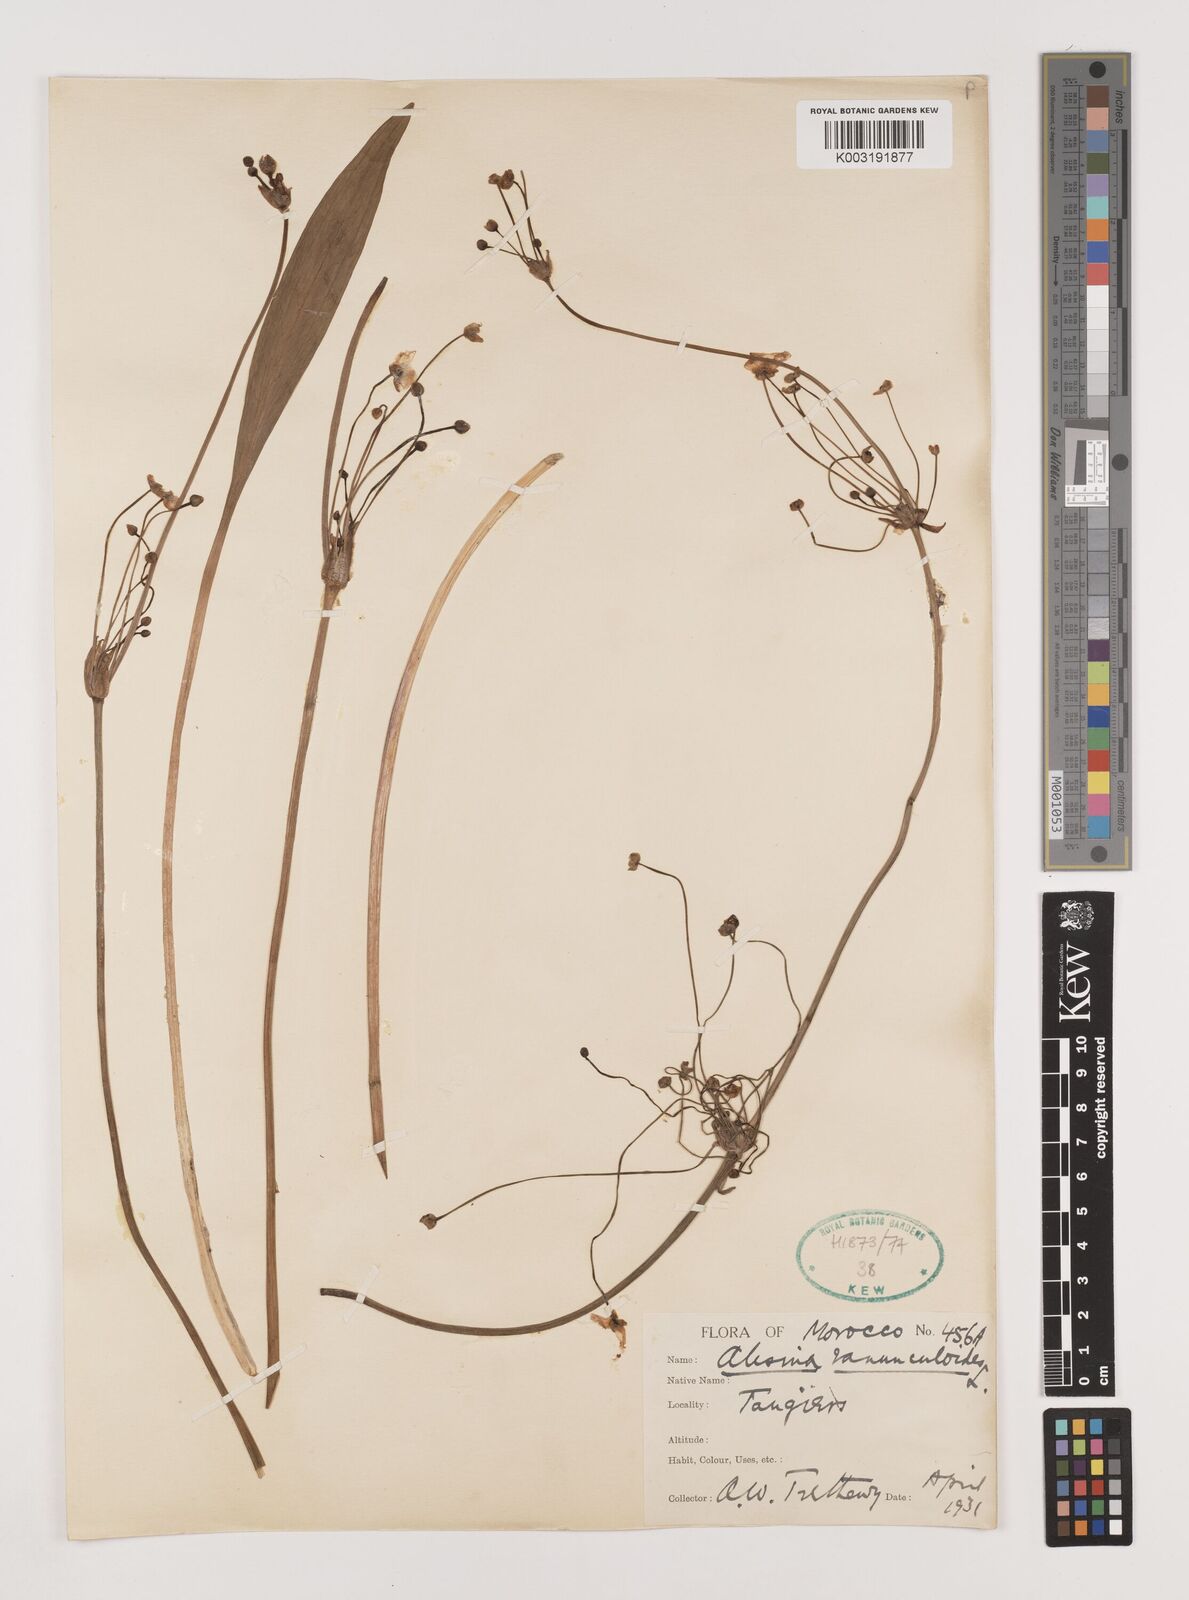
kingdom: Plantae
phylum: Tracheophyta
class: Liliopsida
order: Alismatales
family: Alismataceae
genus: Baldellia
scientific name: Baldellia ranunculoides
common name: Lesser water-plantain
